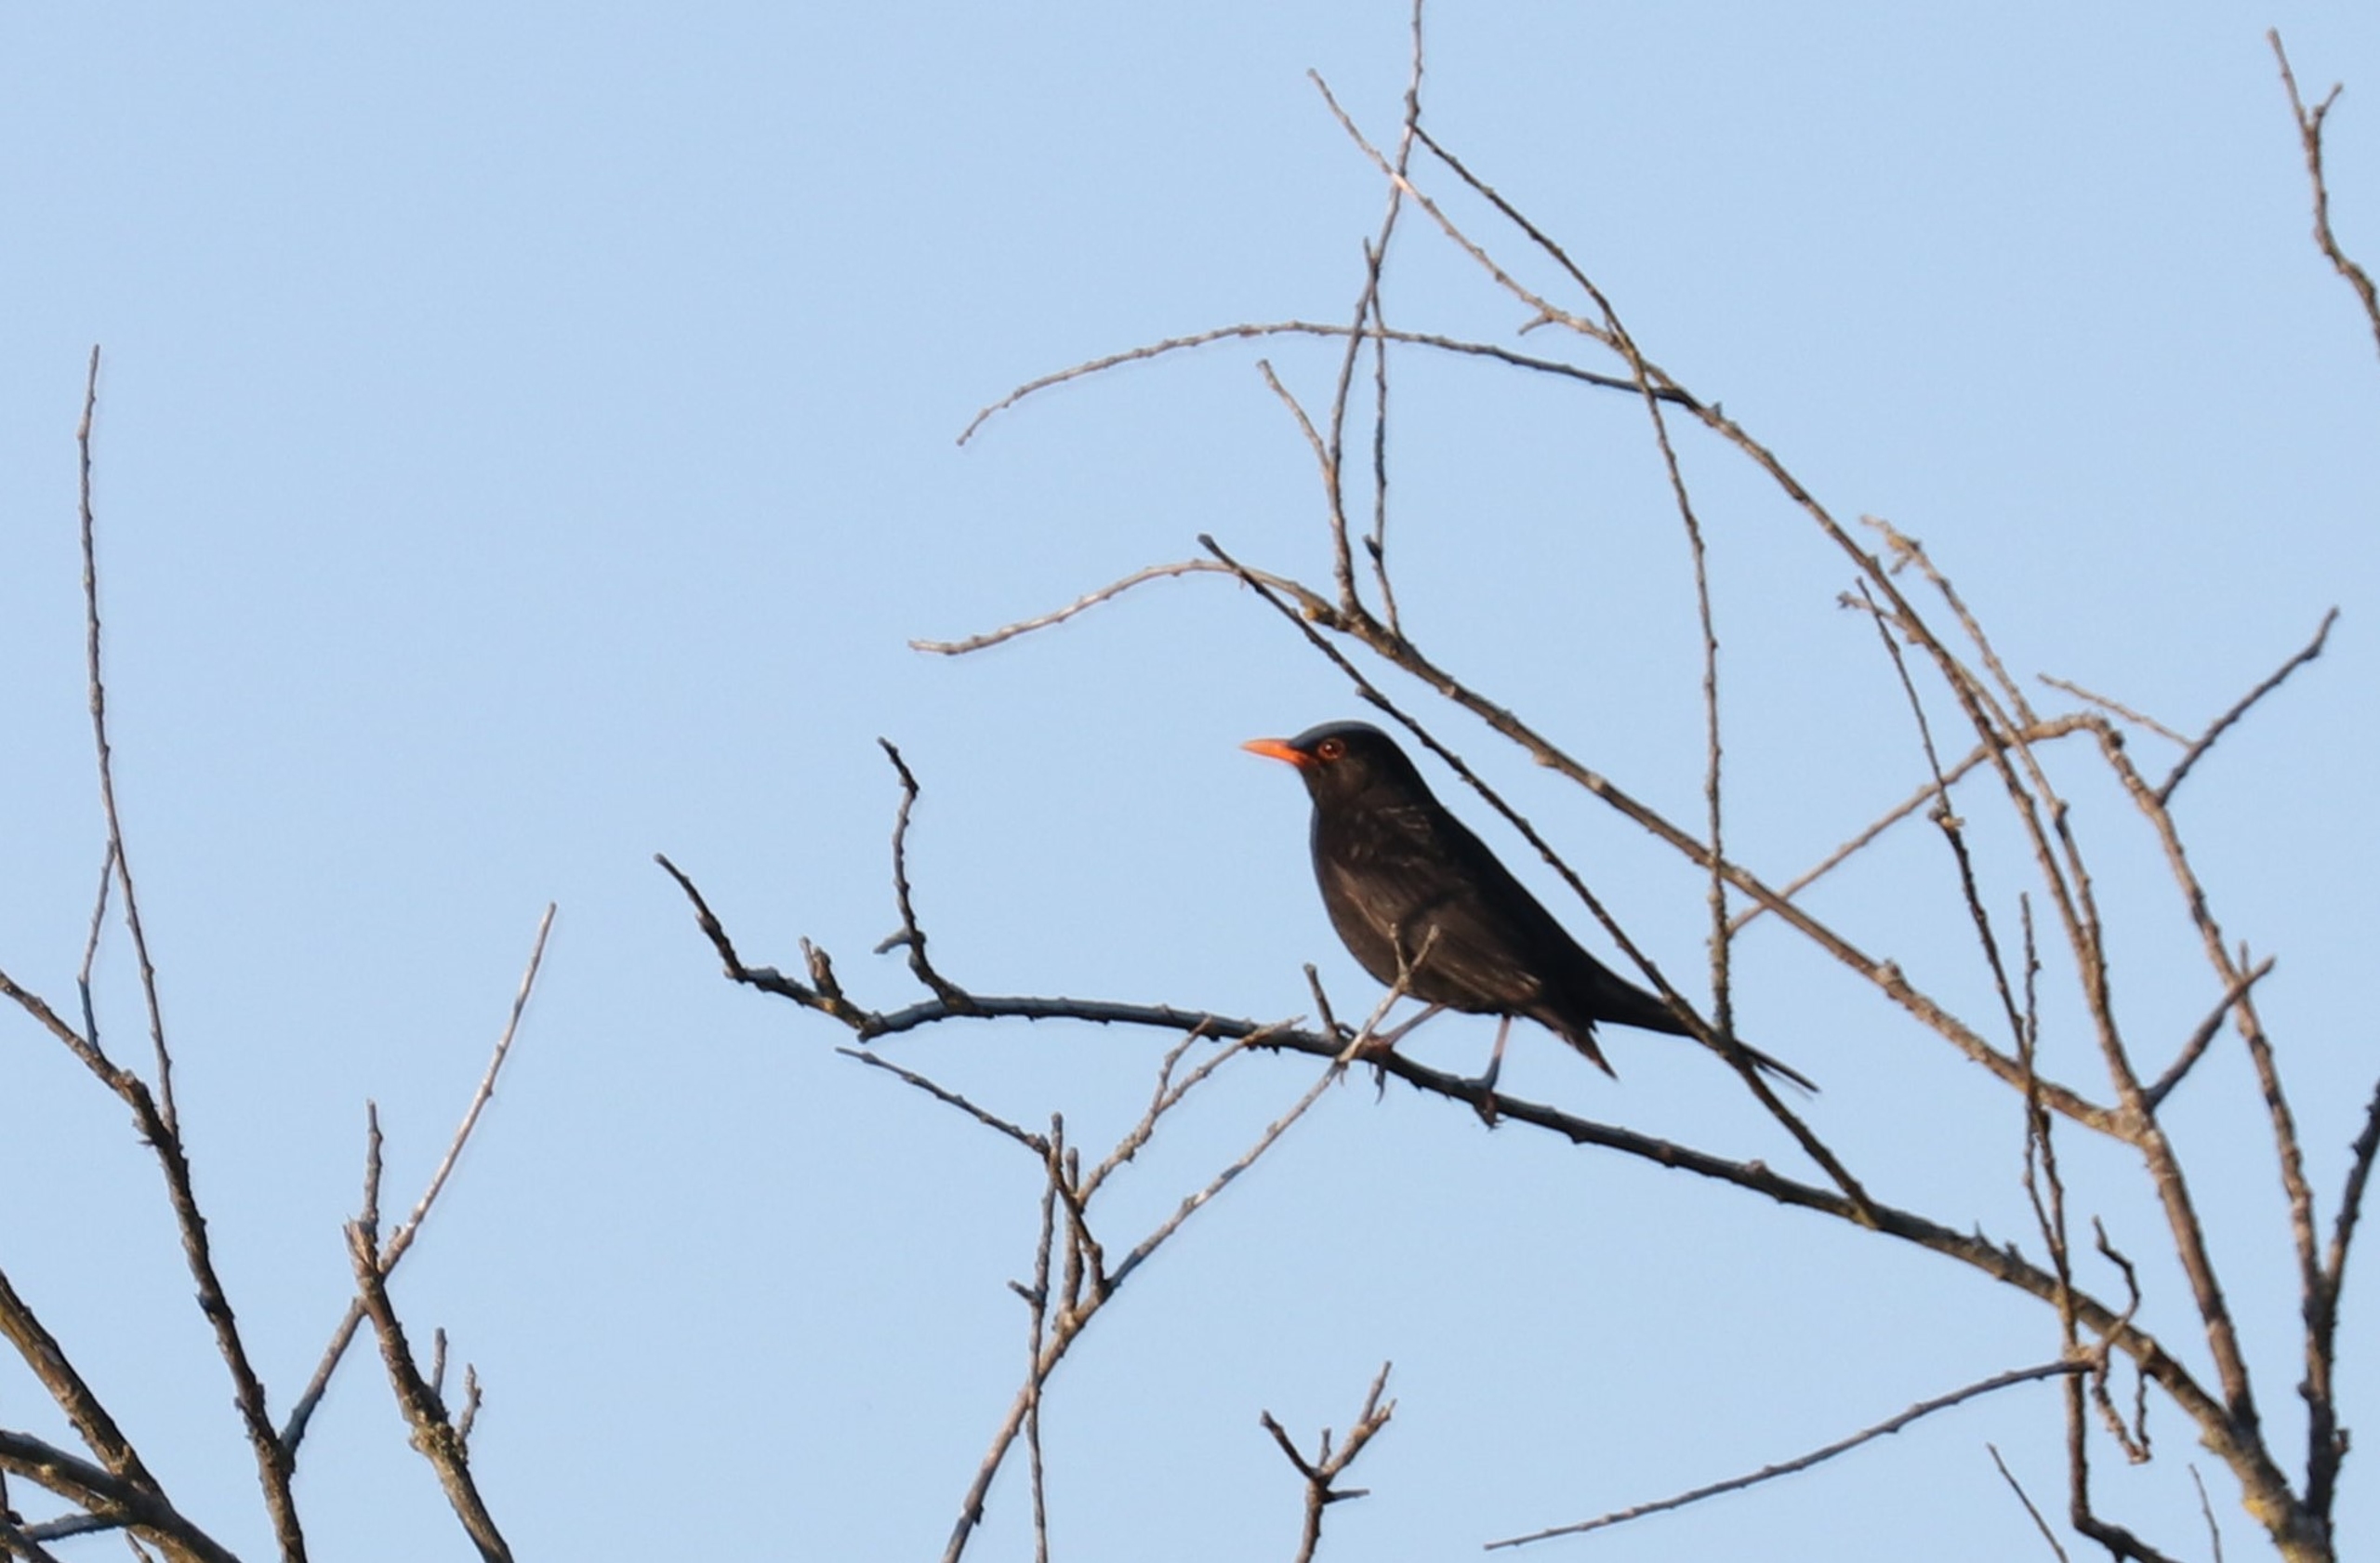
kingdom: Animalia
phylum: Chordata
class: Aves
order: Passeriformes
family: Turdidae
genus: Turdus
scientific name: Turdus merula
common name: Solsort
